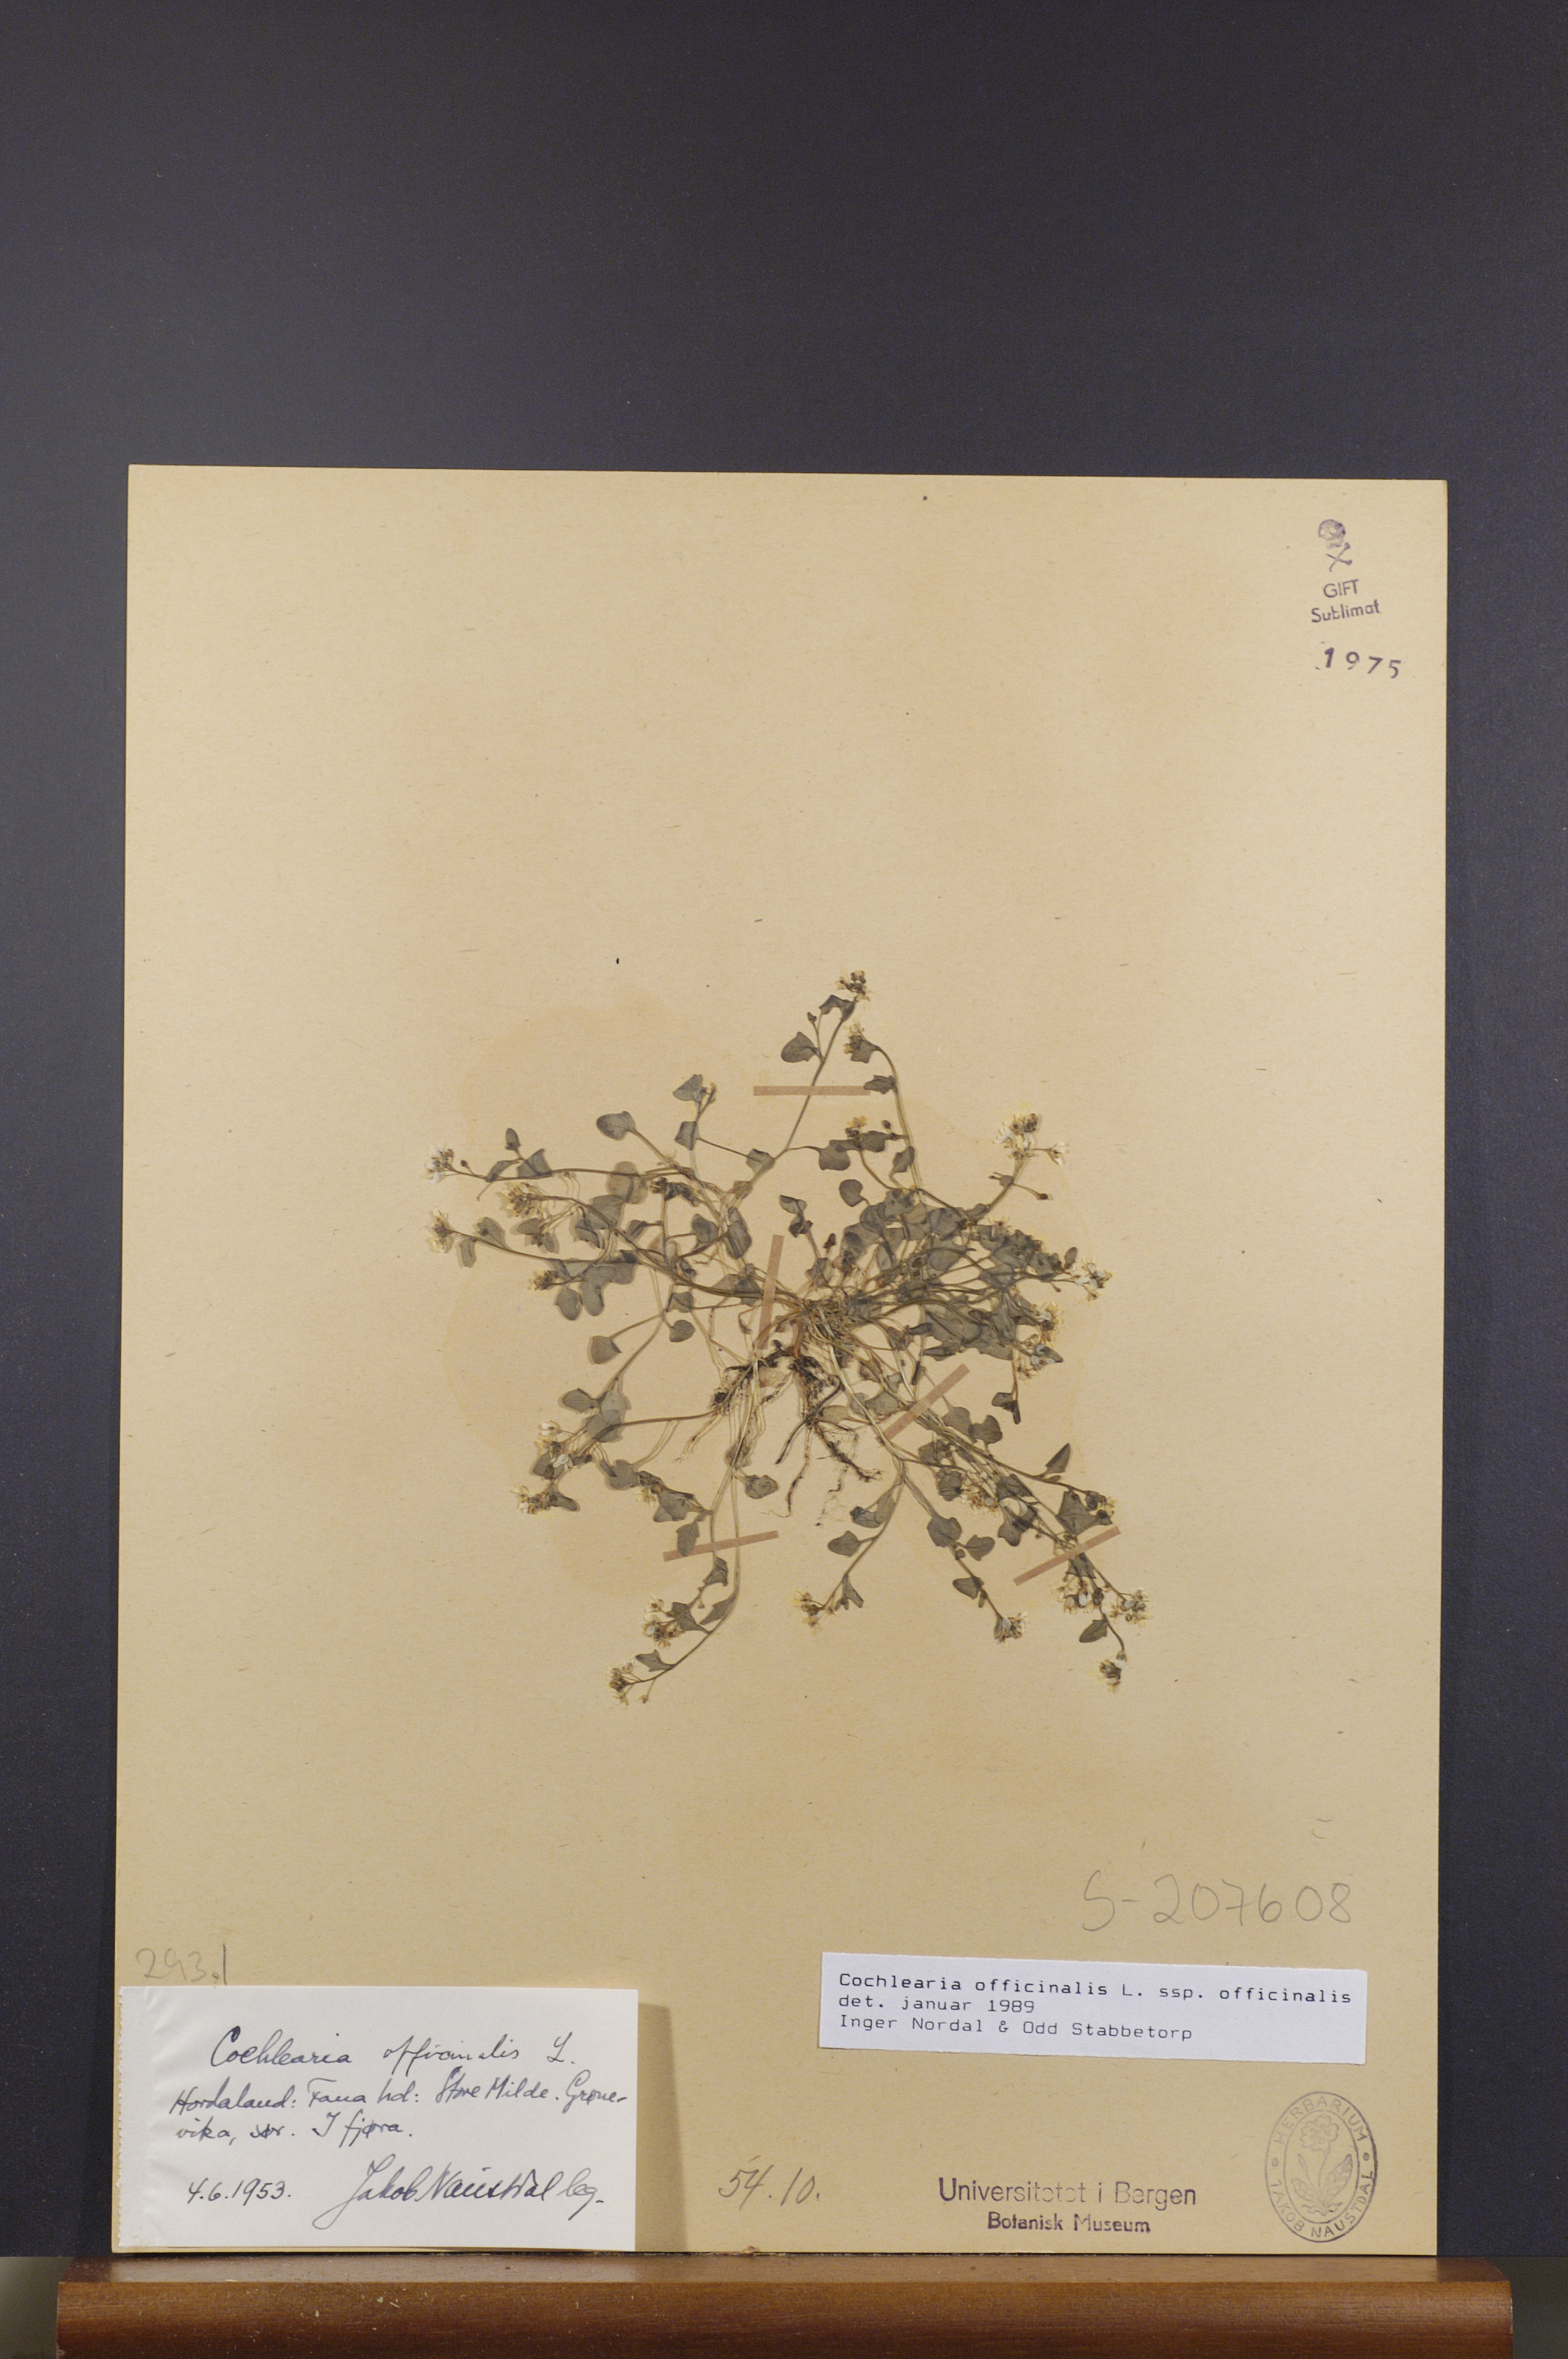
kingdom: Plantae
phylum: Tracheophyta
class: Magnoliopsida
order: Brassicales
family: Brassicaceae
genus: Cochlearia
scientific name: Cochlearia officinalis
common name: Scurvy-grass
